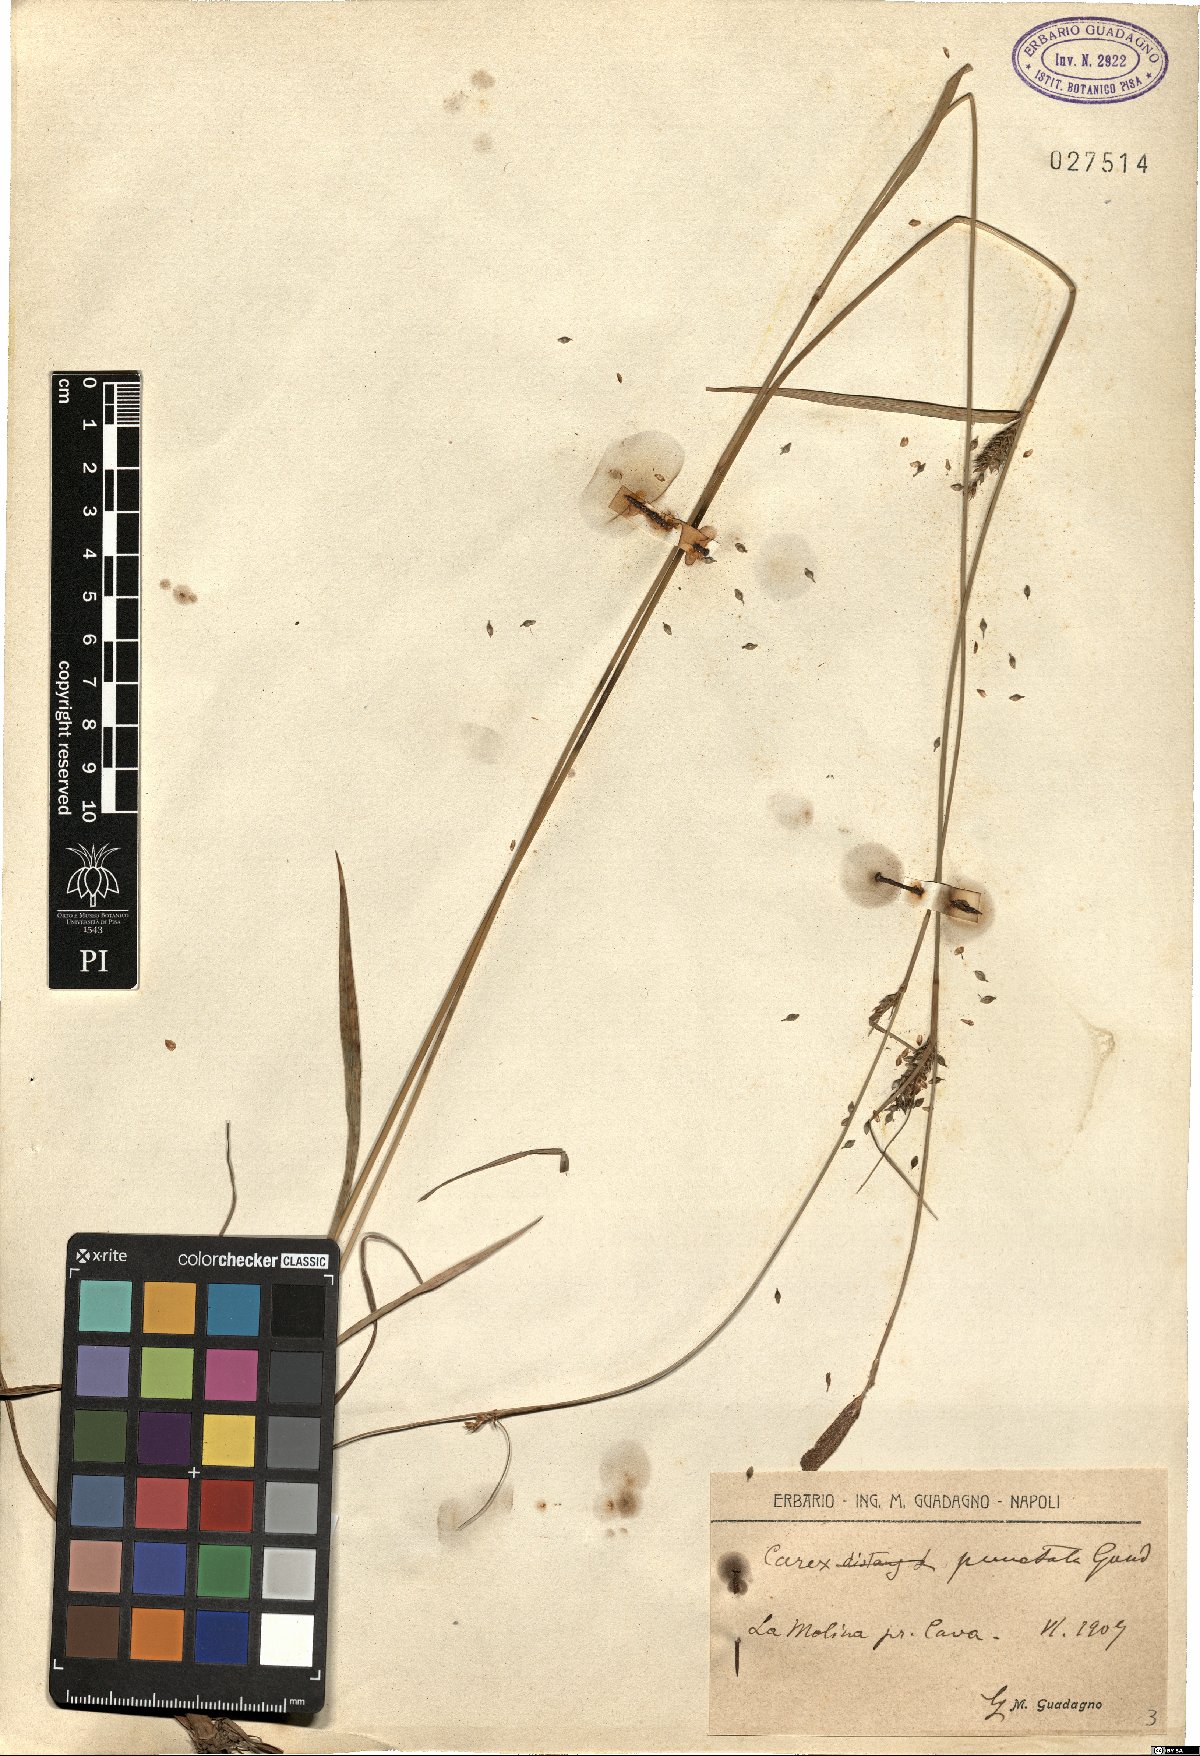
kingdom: Plantae
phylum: Tracheophyta
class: Liliopsida
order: Poales
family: Cyperaceae
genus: Carex
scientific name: Carex punctata
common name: Dotted sedge
